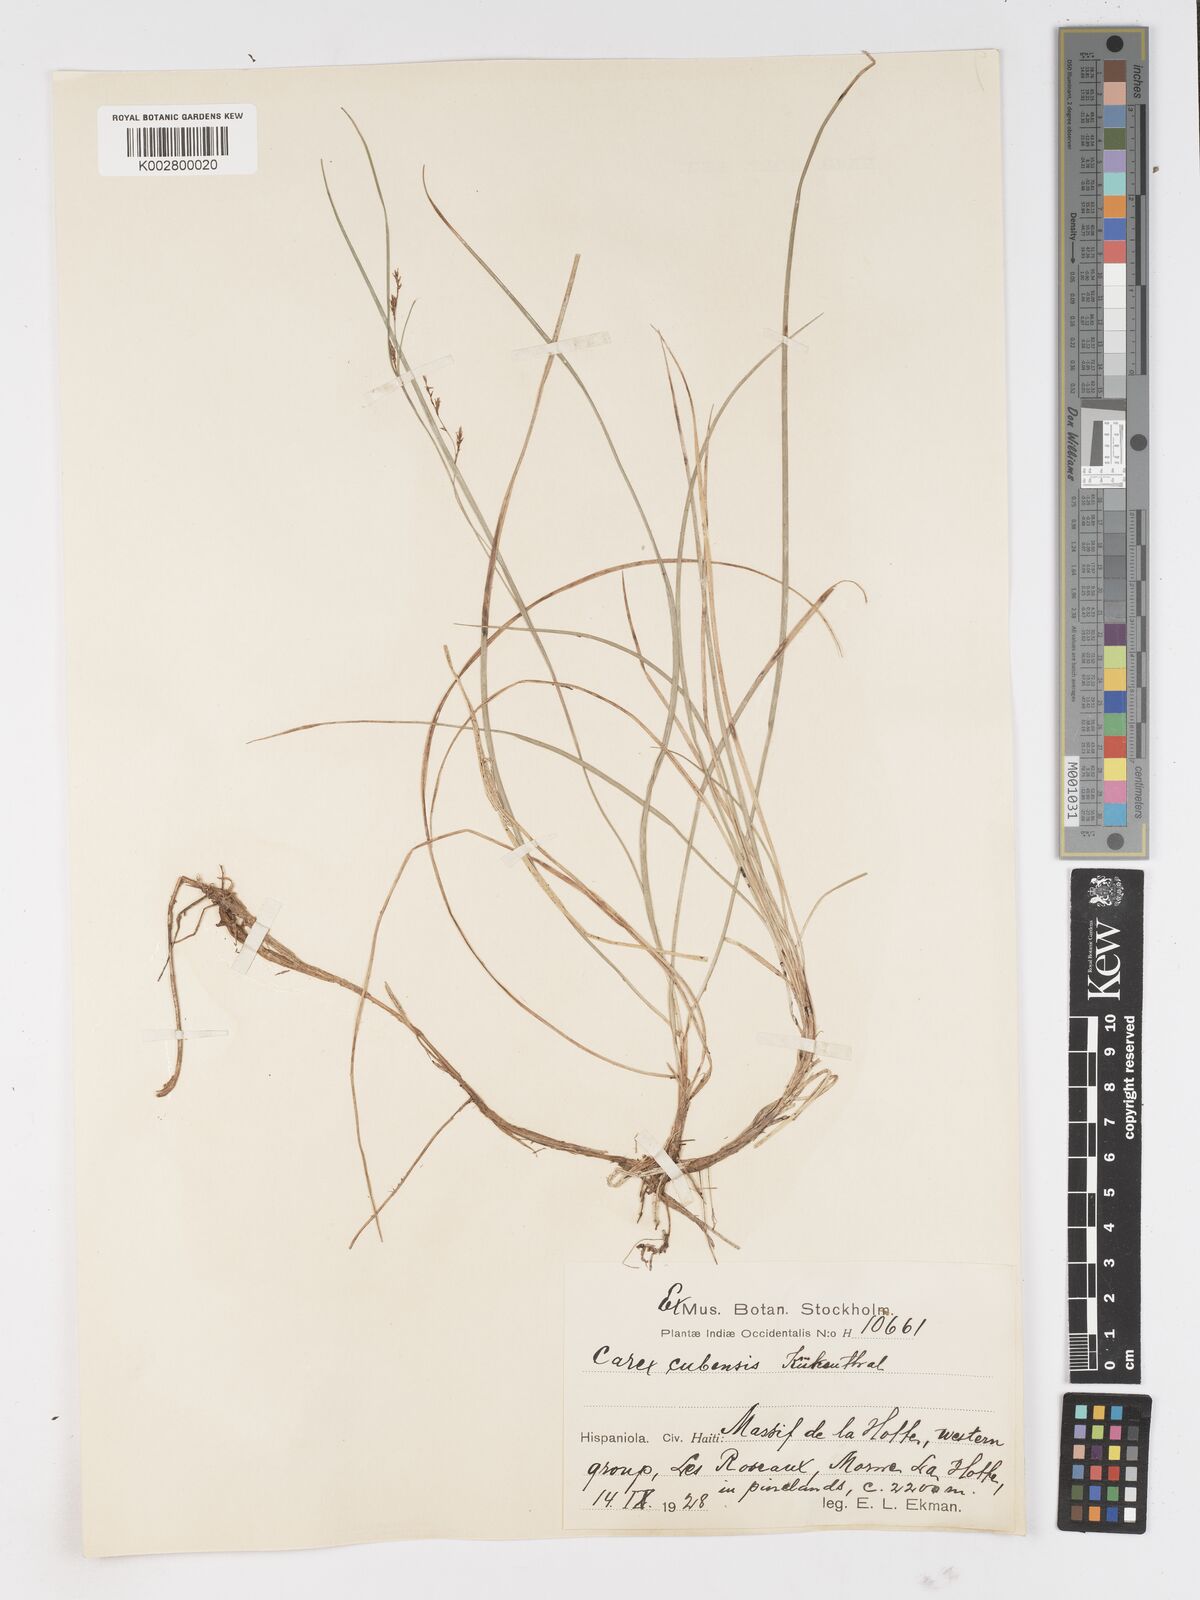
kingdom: Plantae
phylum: Tracheophyta
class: Liliopsida
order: Poales
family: Cyperaceae
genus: Carex
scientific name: Carex cubensis
